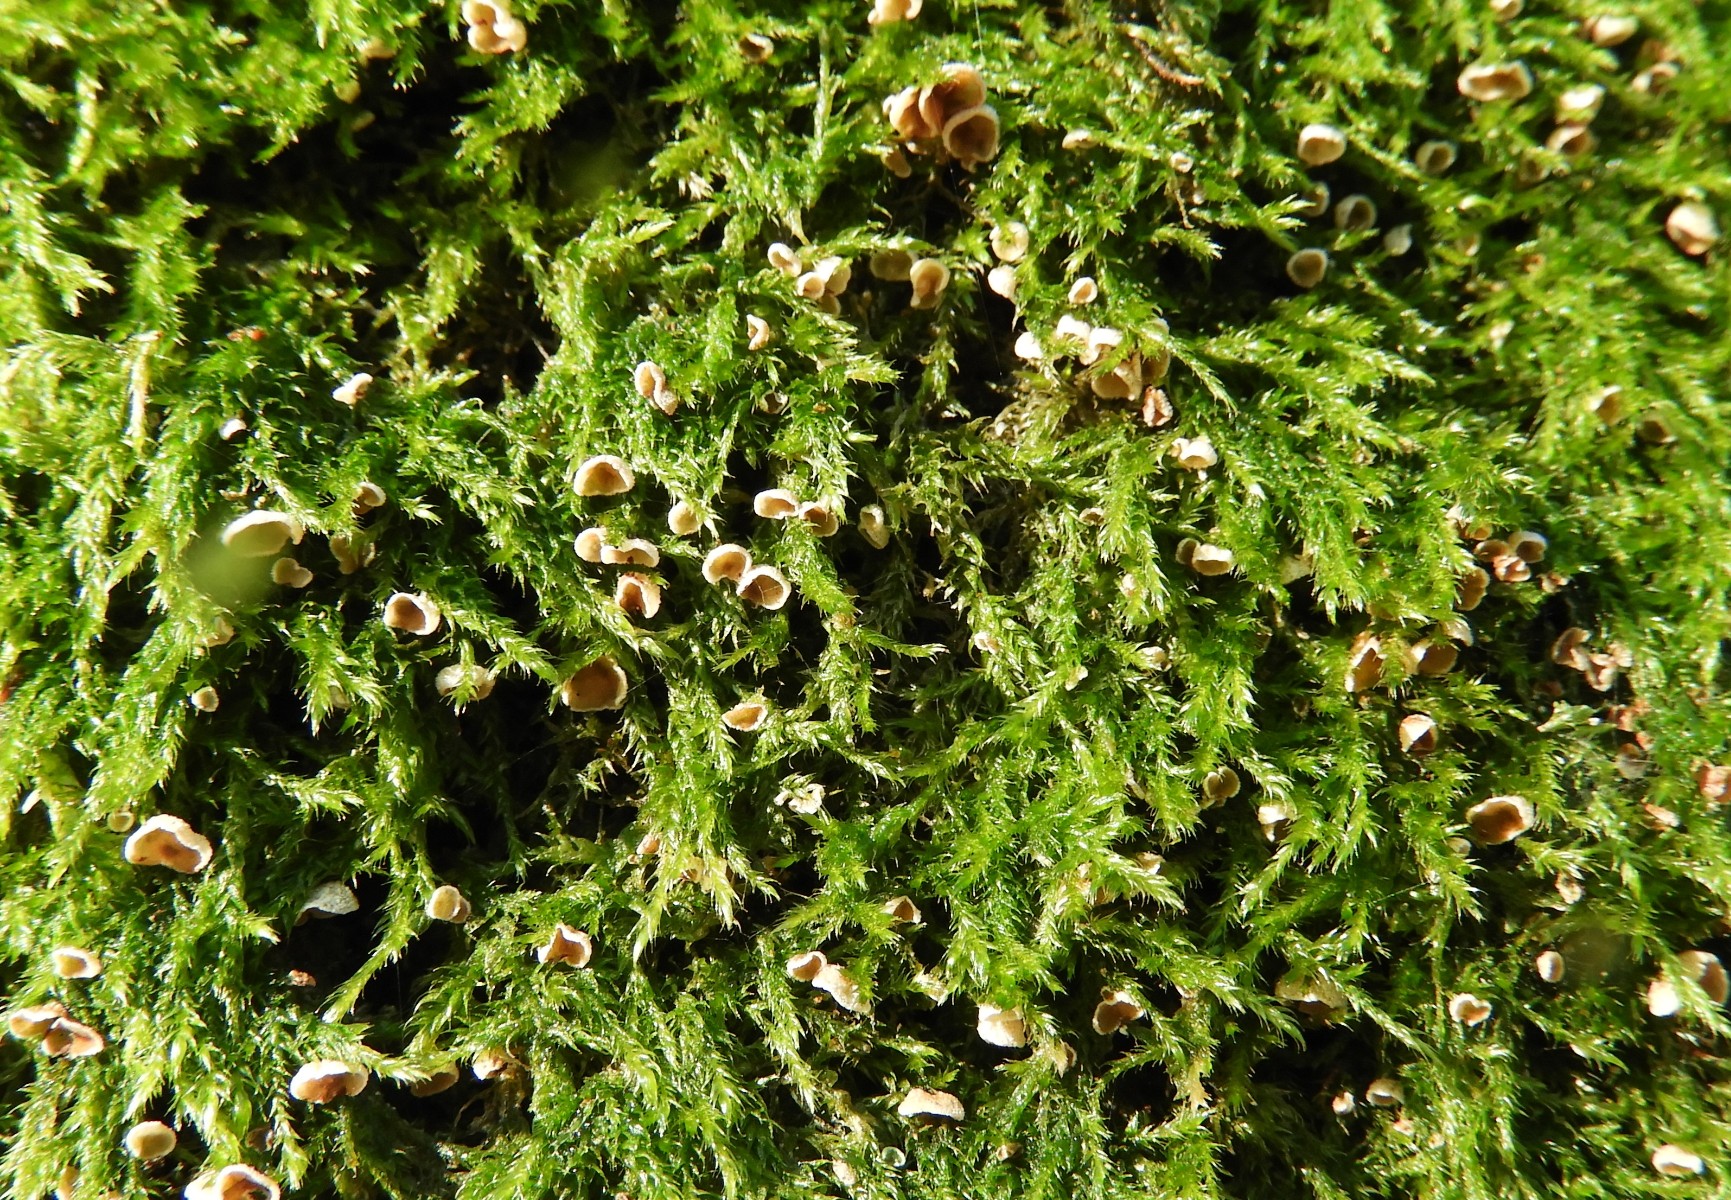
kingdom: Fungi
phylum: Basidiomycota
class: Agaricomycetes
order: Agaricales
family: Chromocyphellaceae
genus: Chromocyphella
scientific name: Chromocyphella muscicola
